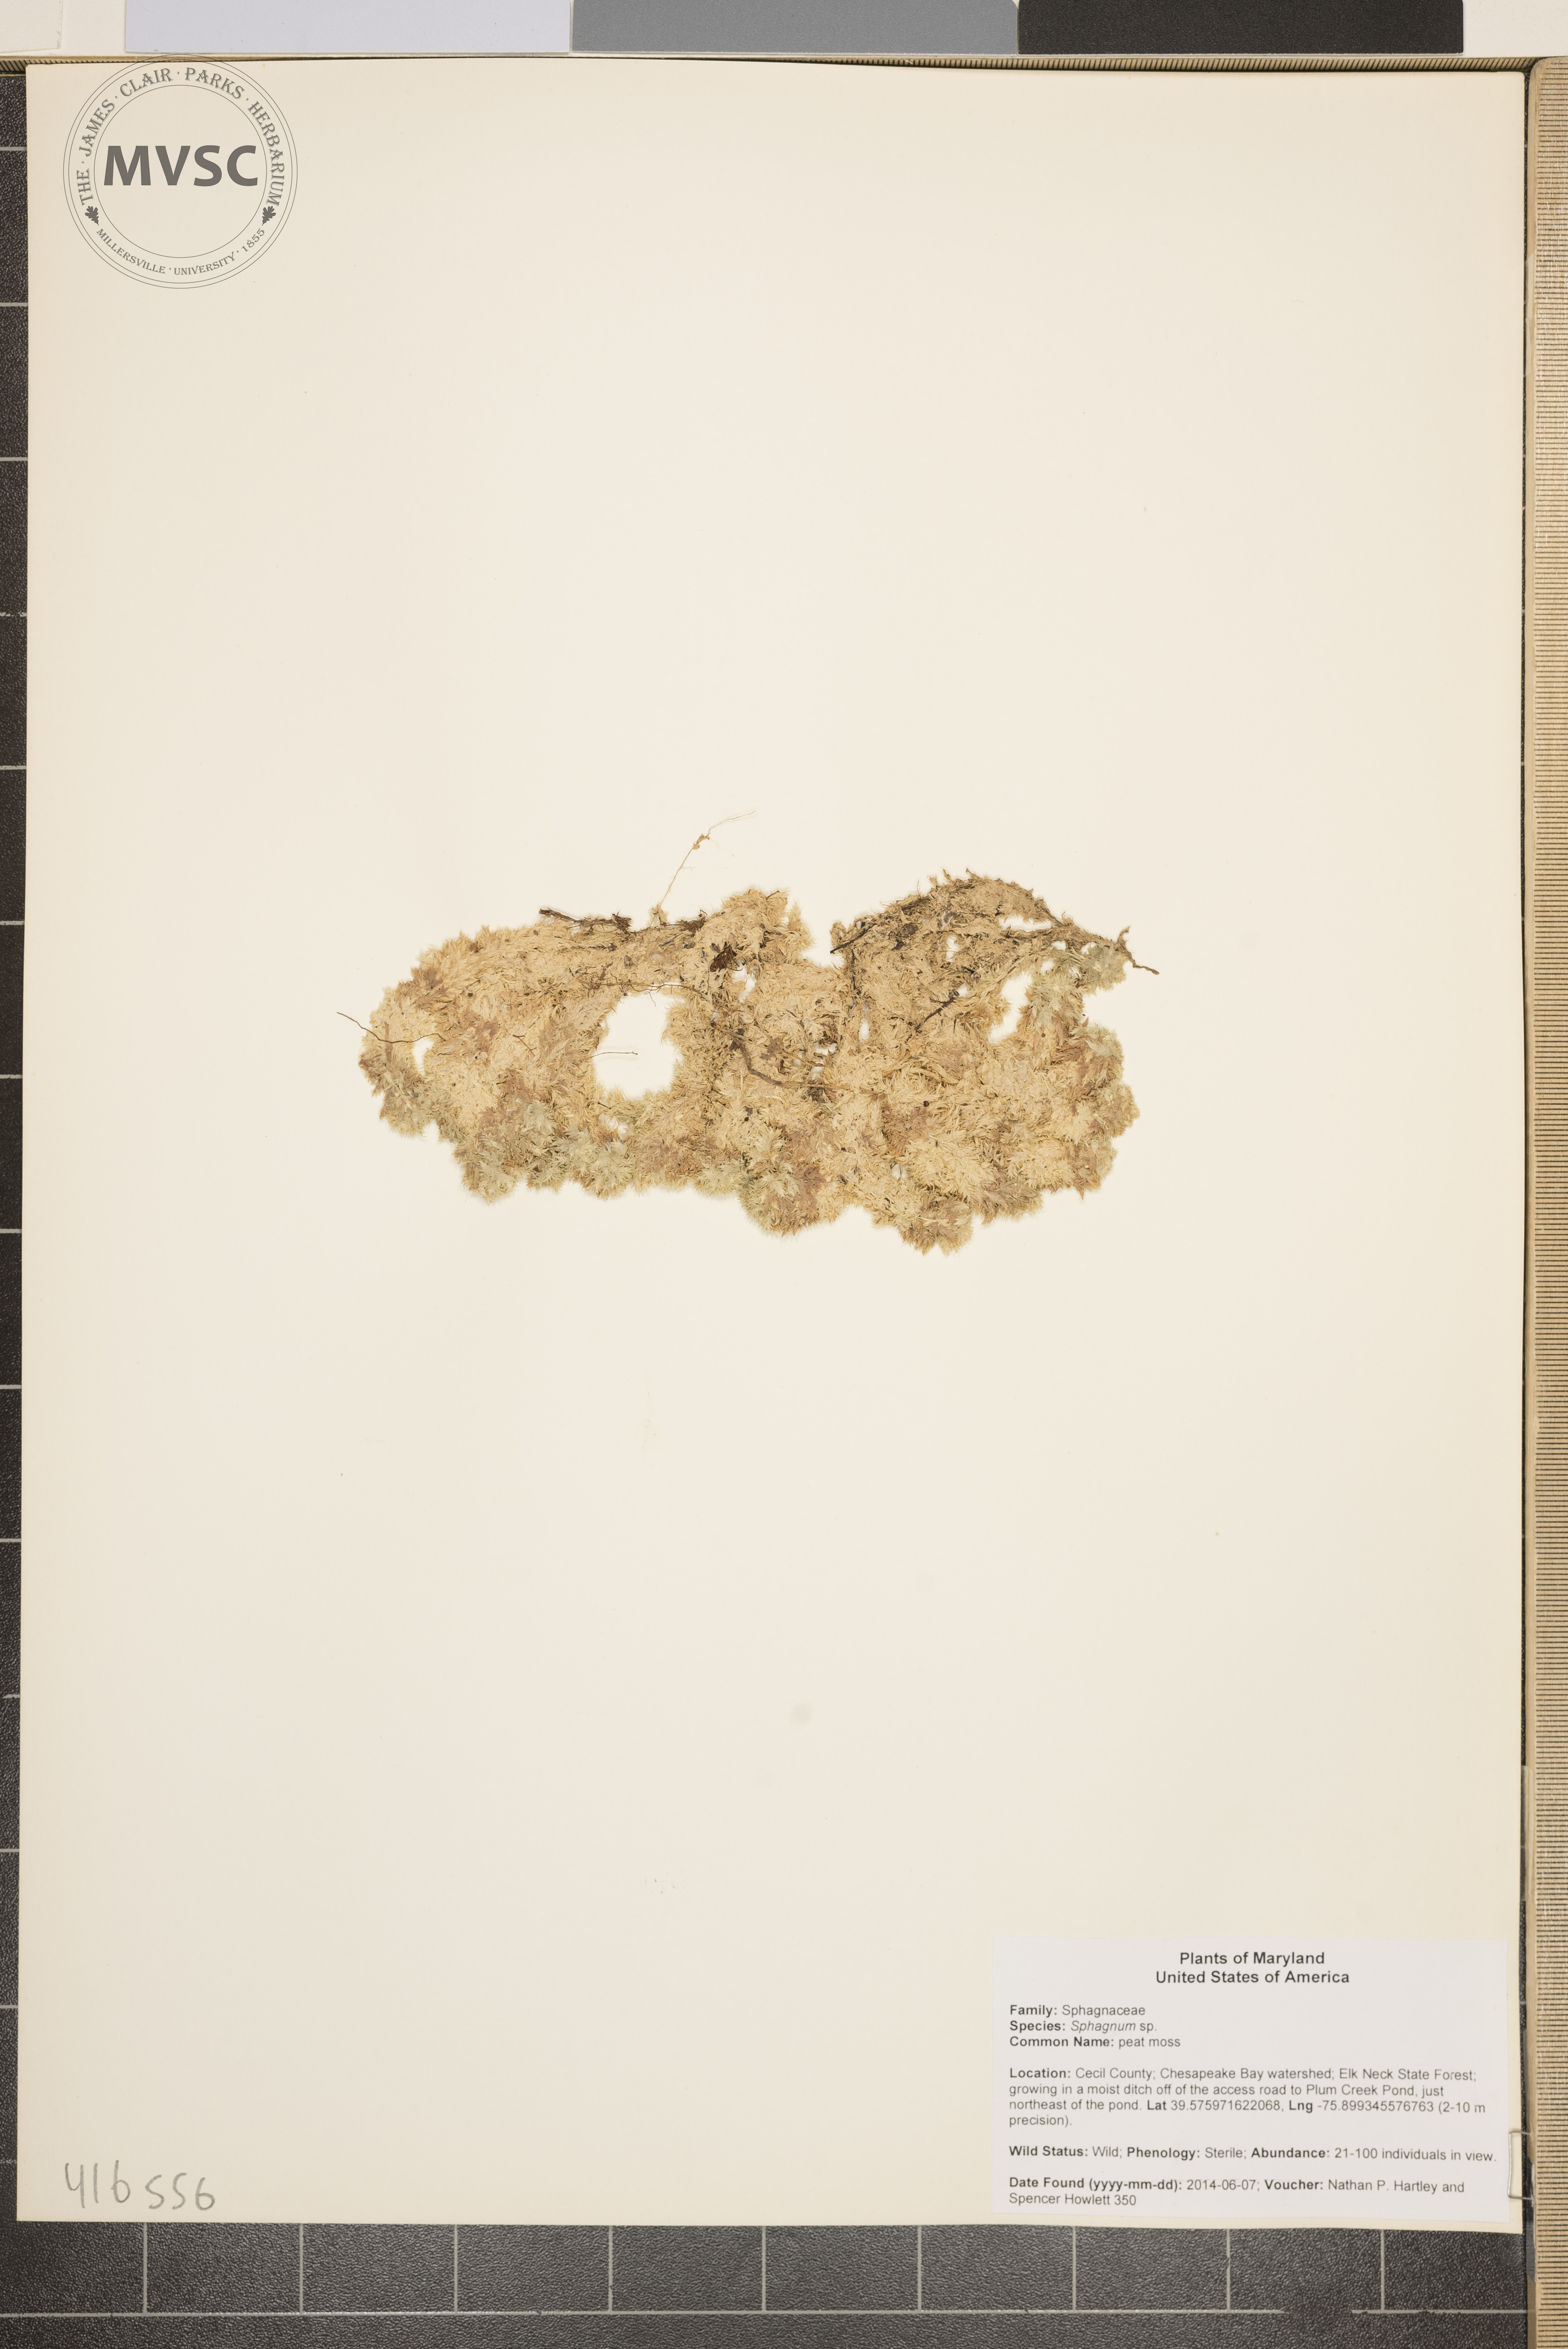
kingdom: Plantae
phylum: Bryophyta
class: Sphagnopsida
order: Sphagnales
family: Sphagnaceae
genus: Sphagnum
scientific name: Sphagnum
